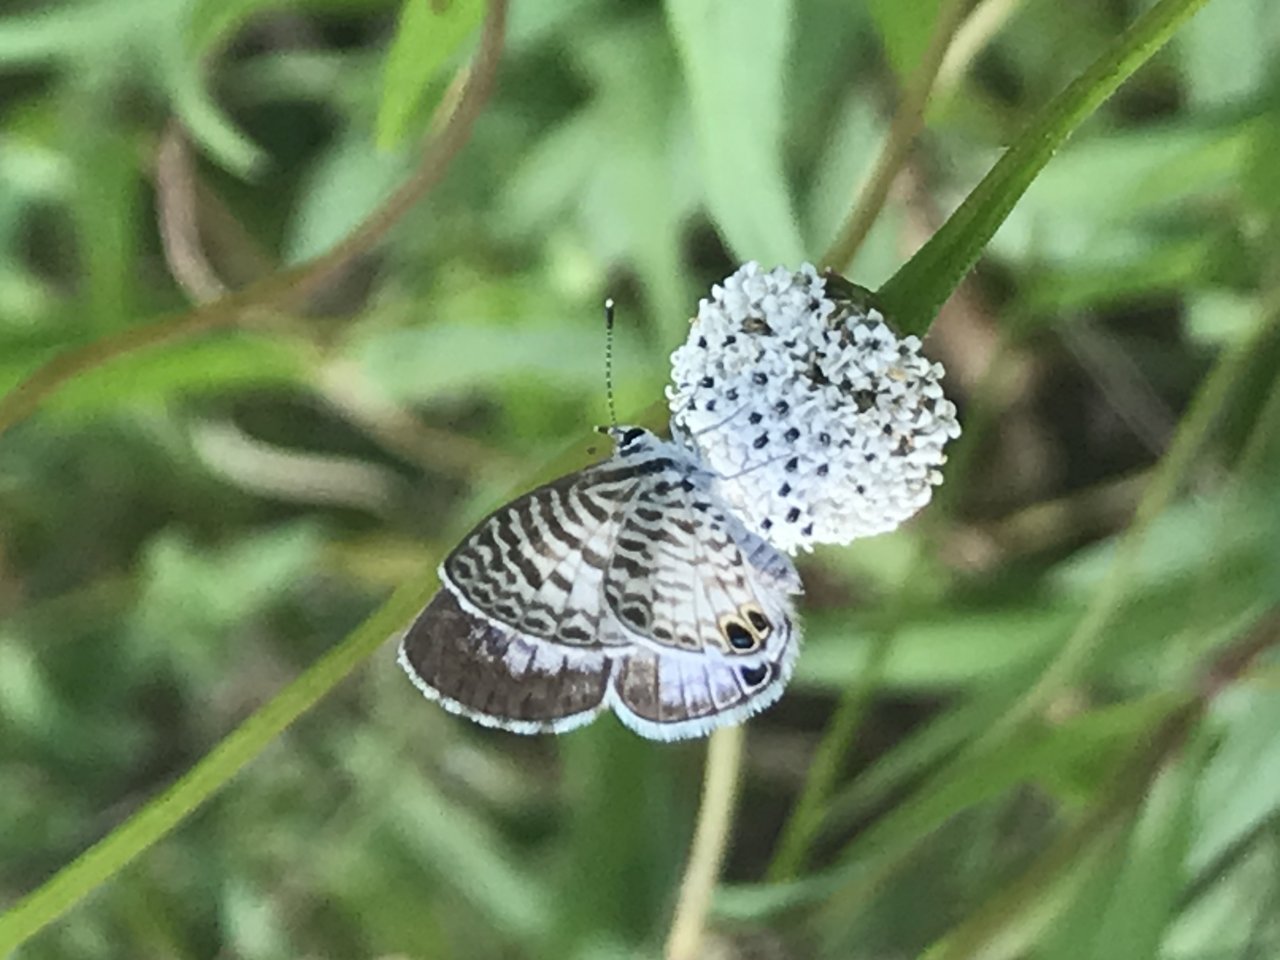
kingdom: Animalia
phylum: Arthropoda
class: Insecta
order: Lepidoptera
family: Lycaenidae
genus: Leptotes
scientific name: Leptotes cassius
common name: Cassius Blue
